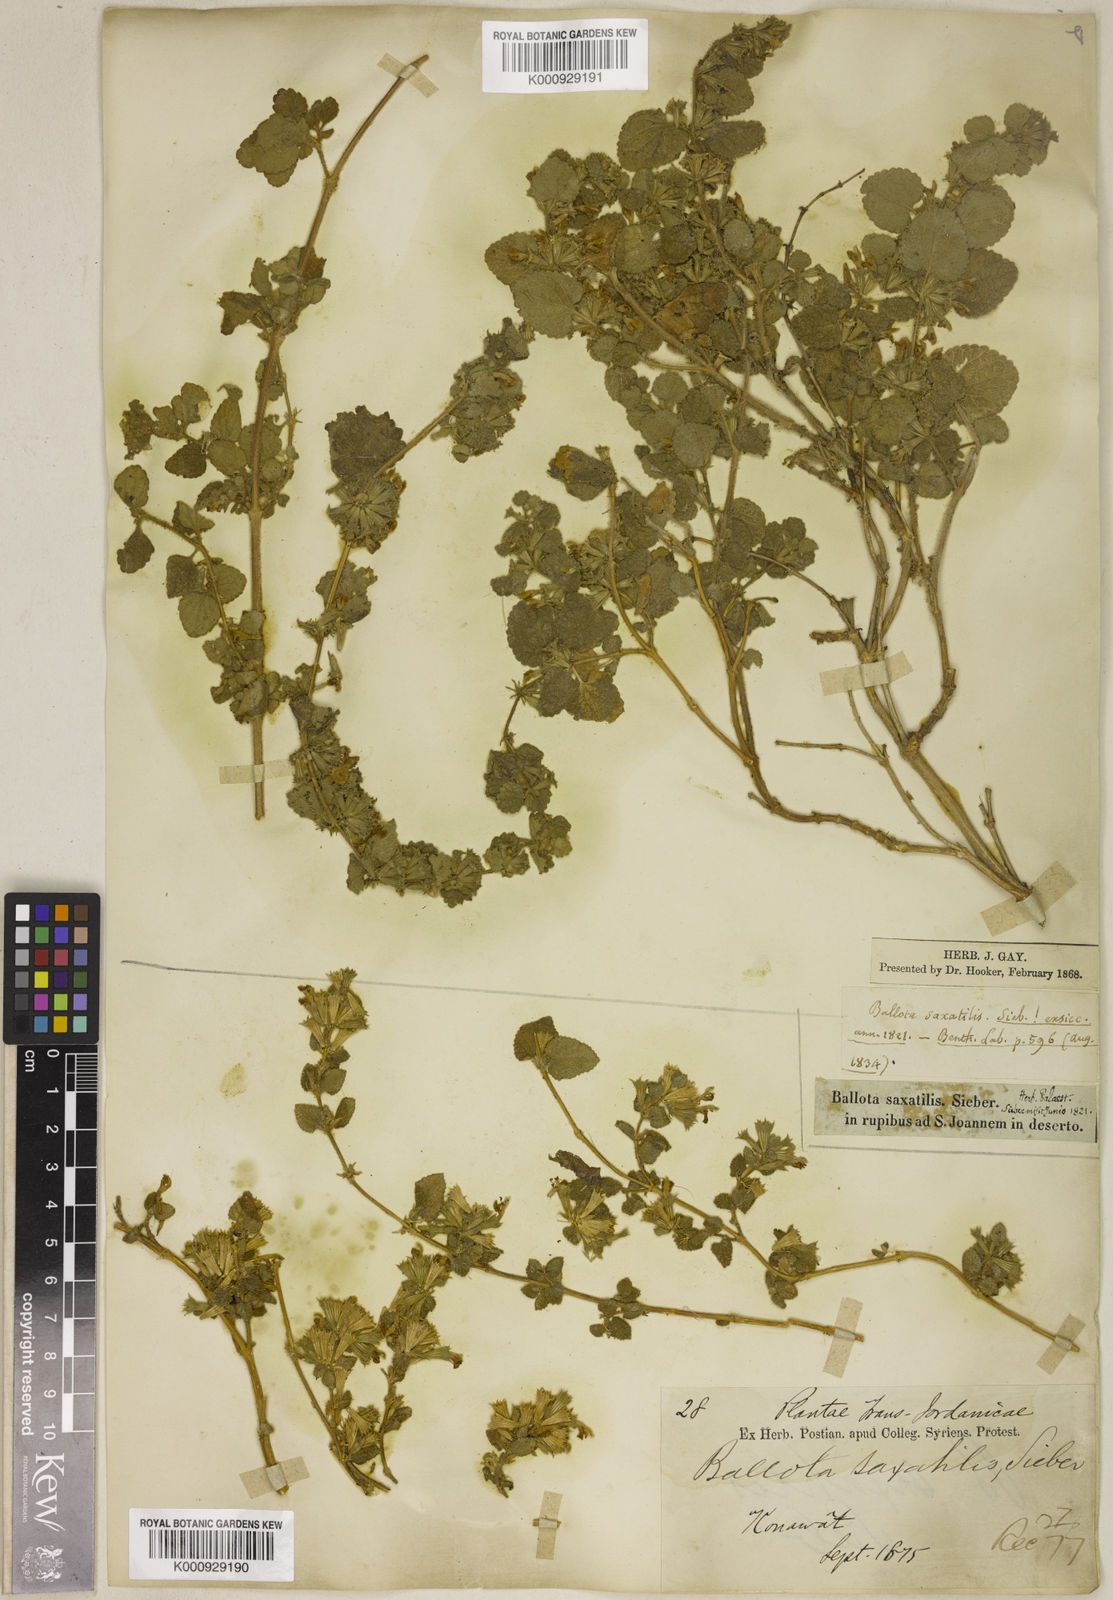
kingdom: Plantae
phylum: Tracheophyta
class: Magnoliopsida
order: Lamiales
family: Lamiaceae
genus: Ballota
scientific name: Ballota saxatilis
